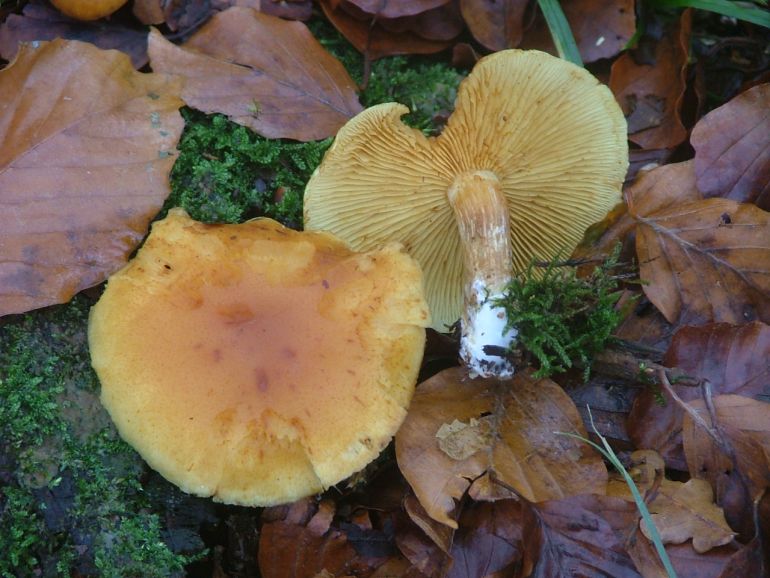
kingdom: Fungi
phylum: Basidiomycota
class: Agaricomycetes
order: Agaricales
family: Hymenogastraceae
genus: Gymnopilus
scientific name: Gymnopilus penetrans
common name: plettet flammehat
